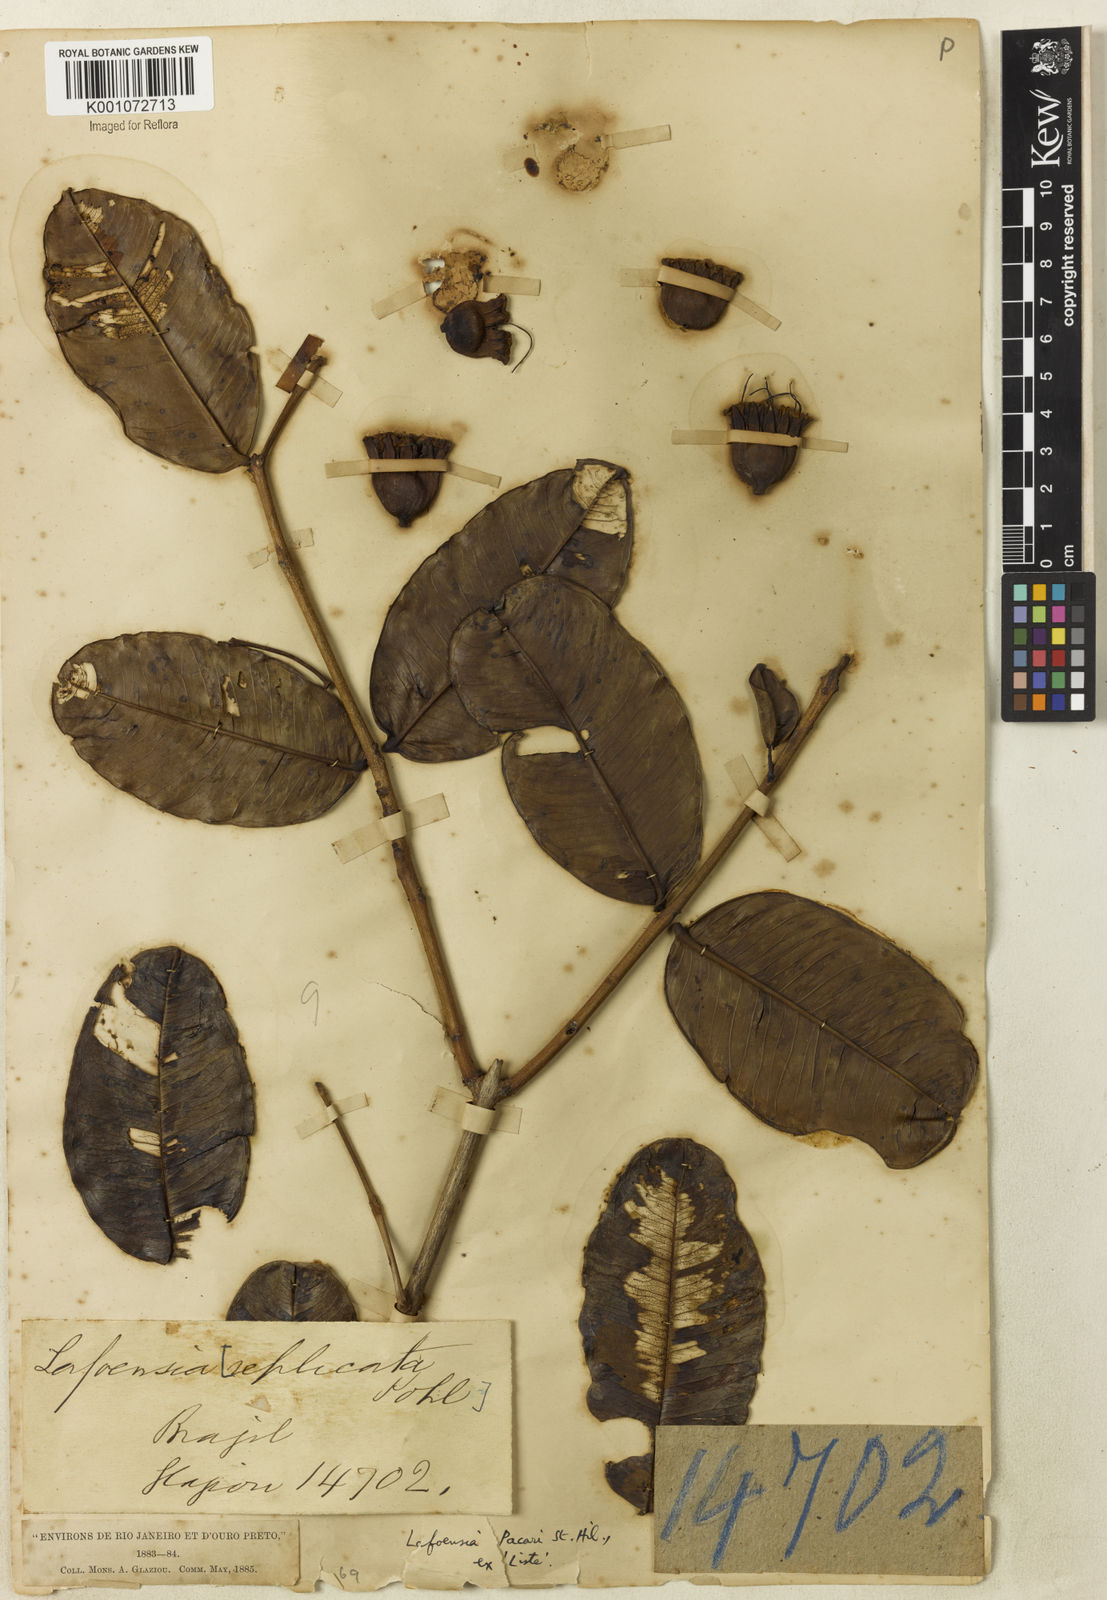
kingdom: Plantae
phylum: Tracheophyta
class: Magnoliopsida
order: Myrtales
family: Lythraceae
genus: Lafoensia
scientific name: Lafoensia pacari
